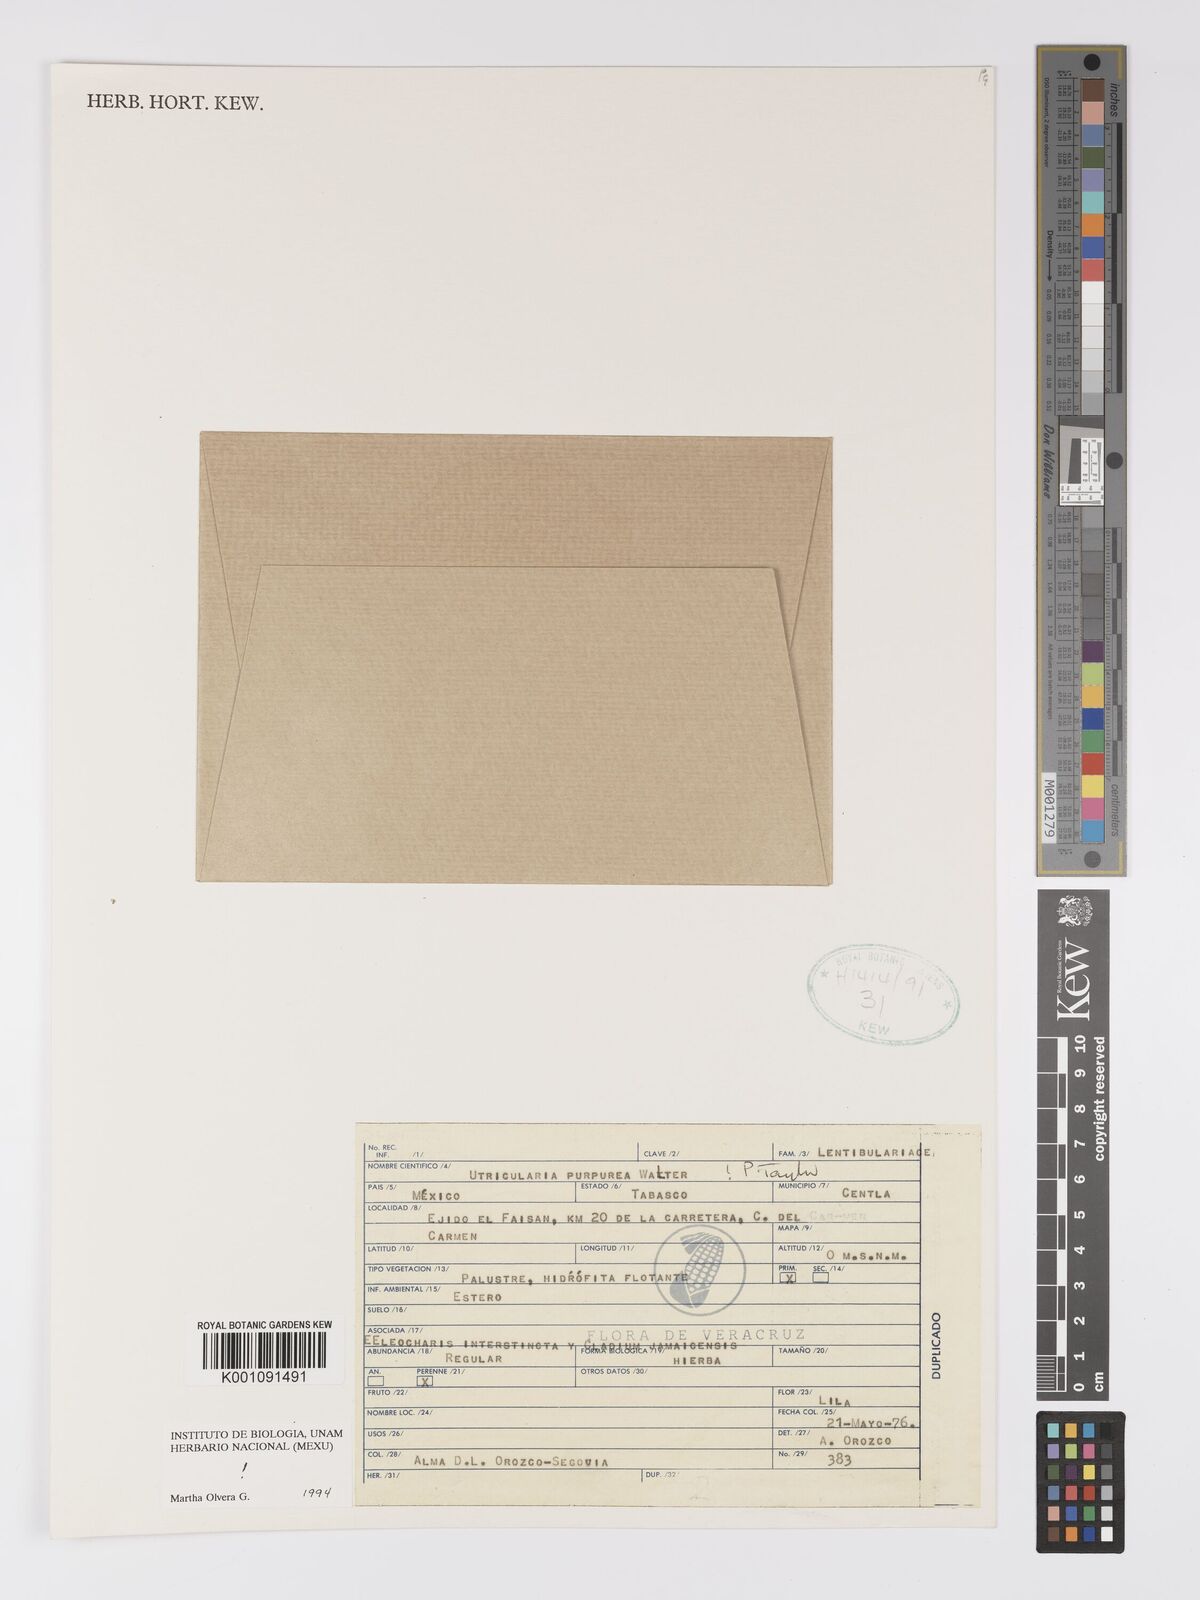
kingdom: Plantae
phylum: Tracheophyta
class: Magnoliopsida
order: Lamiales
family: Lentibulariaceae
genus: Utricularia
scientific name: Utricularia purpurea
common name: Eastern purple bladderwort
